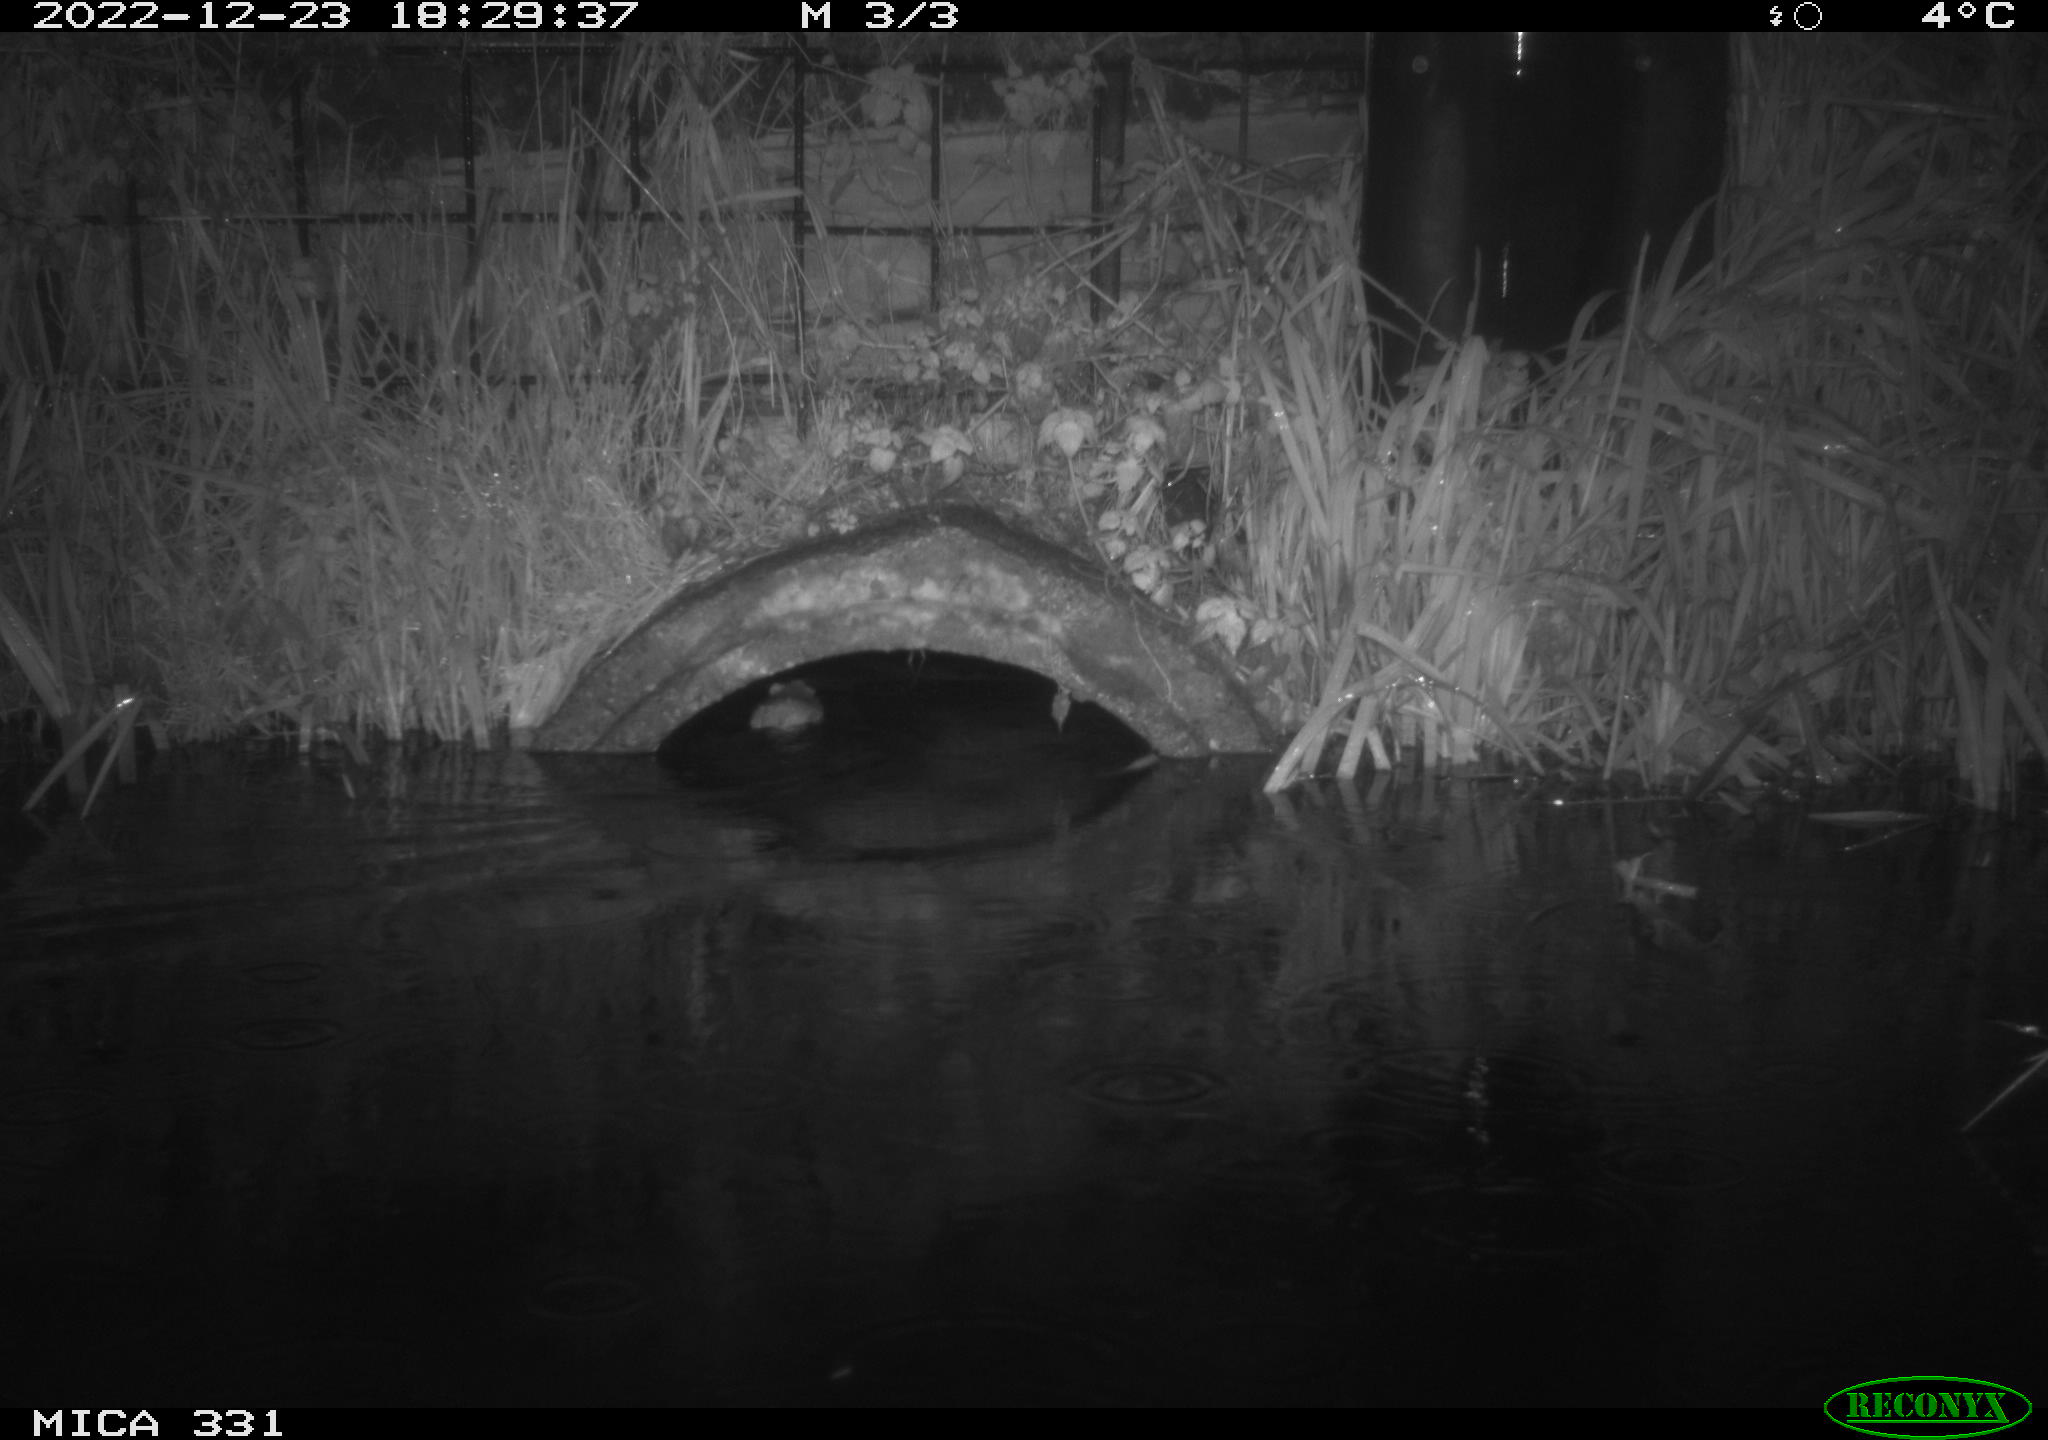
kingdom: Animalia
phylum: Chordata
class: Mammalia
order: Rodentia
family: Muridae
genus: Rattus
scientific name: Rattus norvegicus
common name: Brown rat
